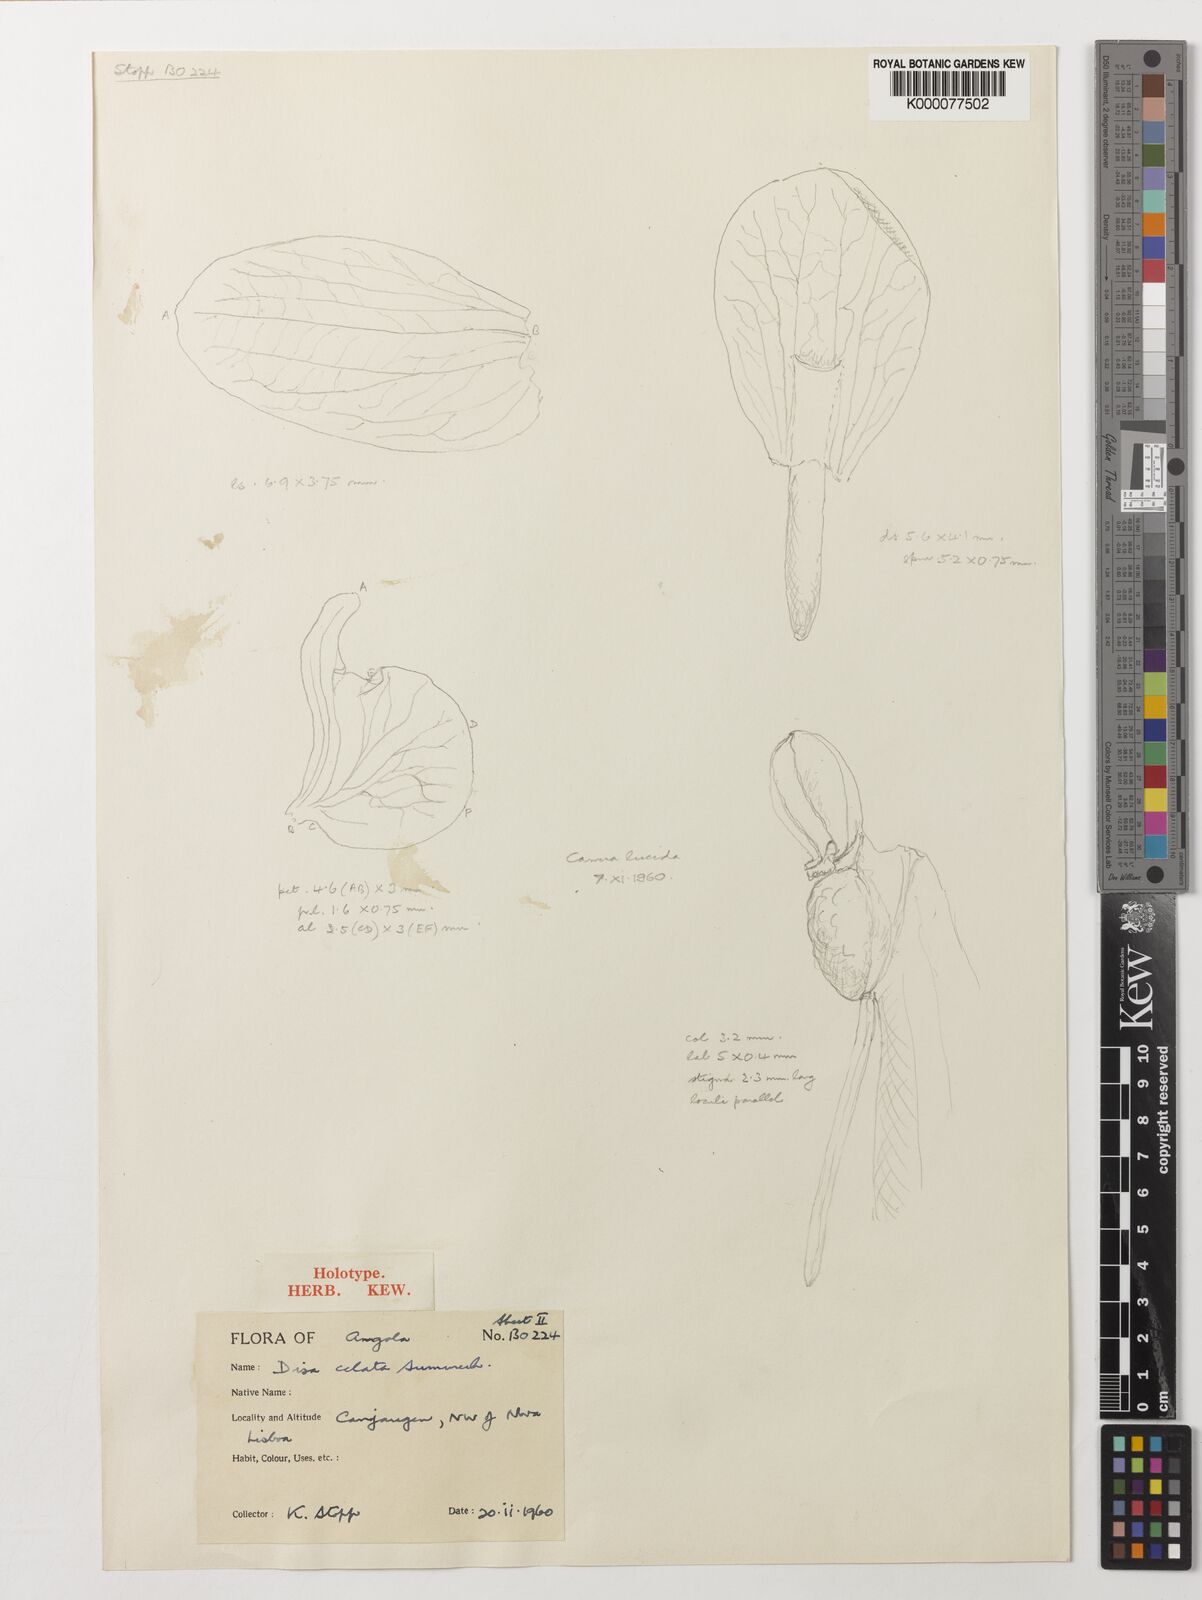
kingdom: Plantae
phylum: Tracheophyta
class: Liliopsida
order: Asparagales
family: Orchidaceae
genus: Disa
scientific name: Disa celata
